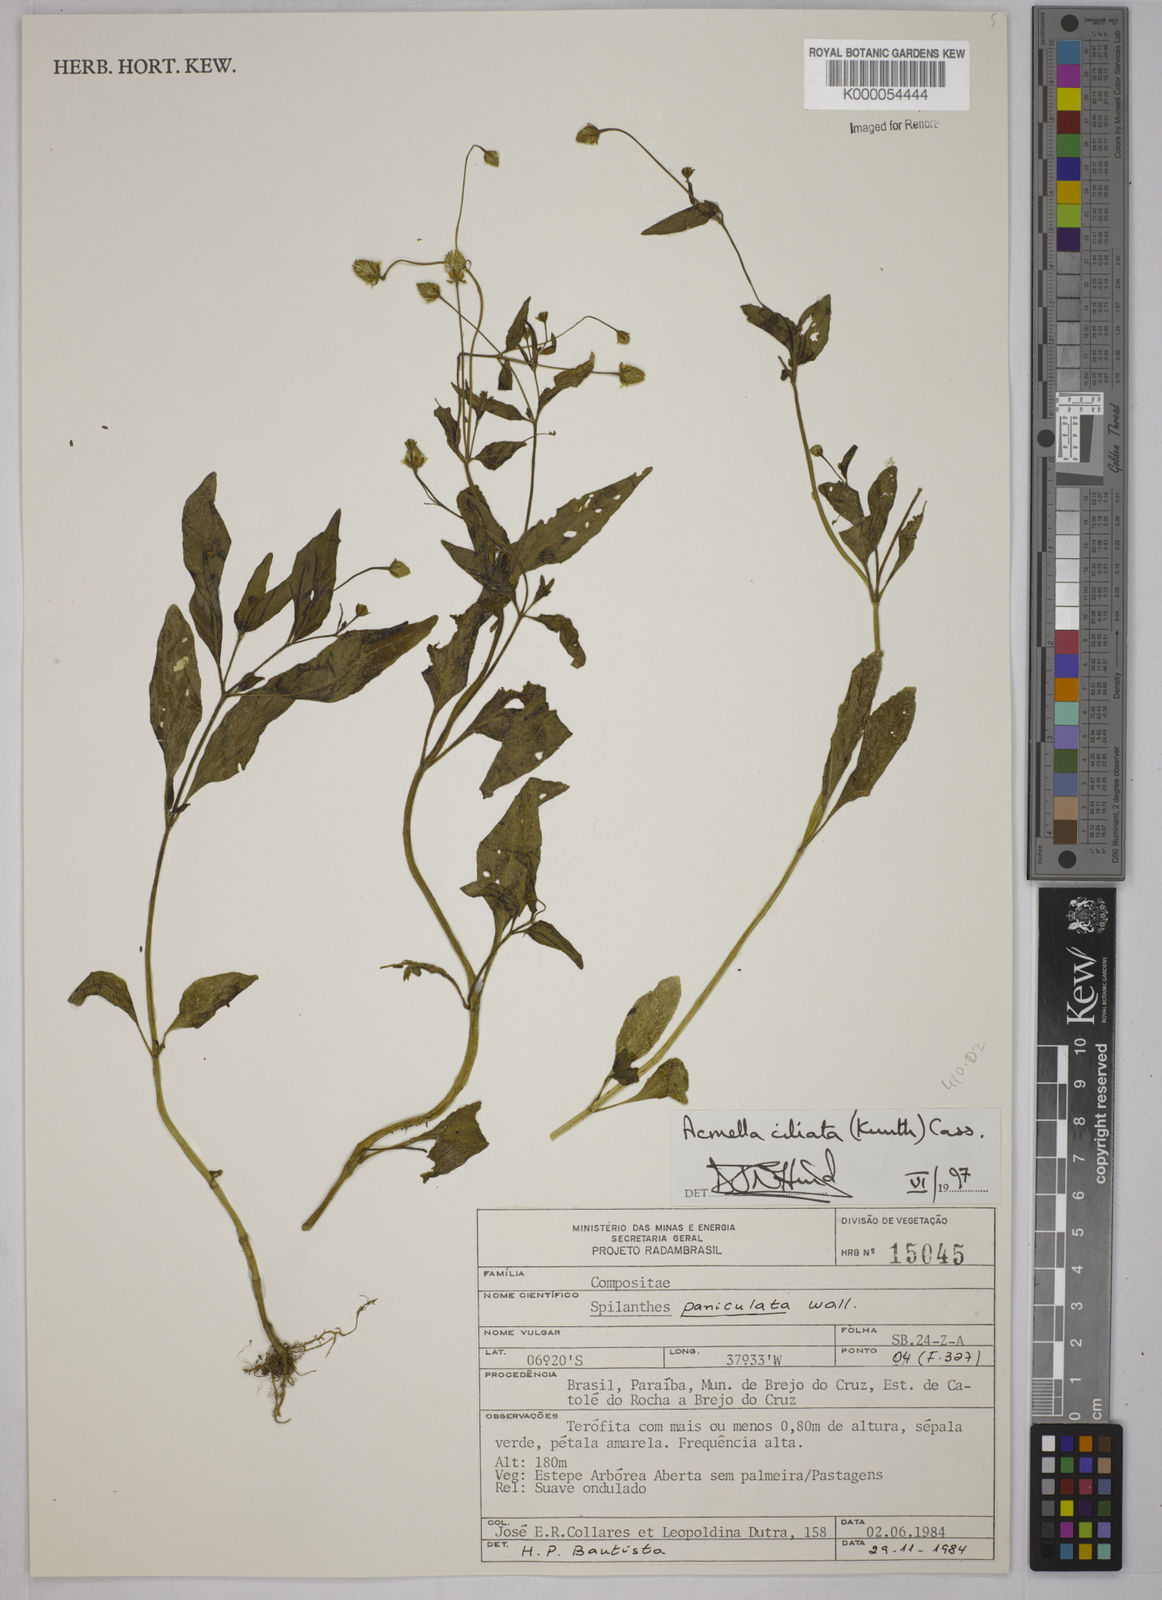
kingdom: Plantae
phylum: Tracheophyta
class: Magnoliopsida
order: Asterales
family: Asteraceae
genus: Acmella
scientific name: Acmella ciliata
